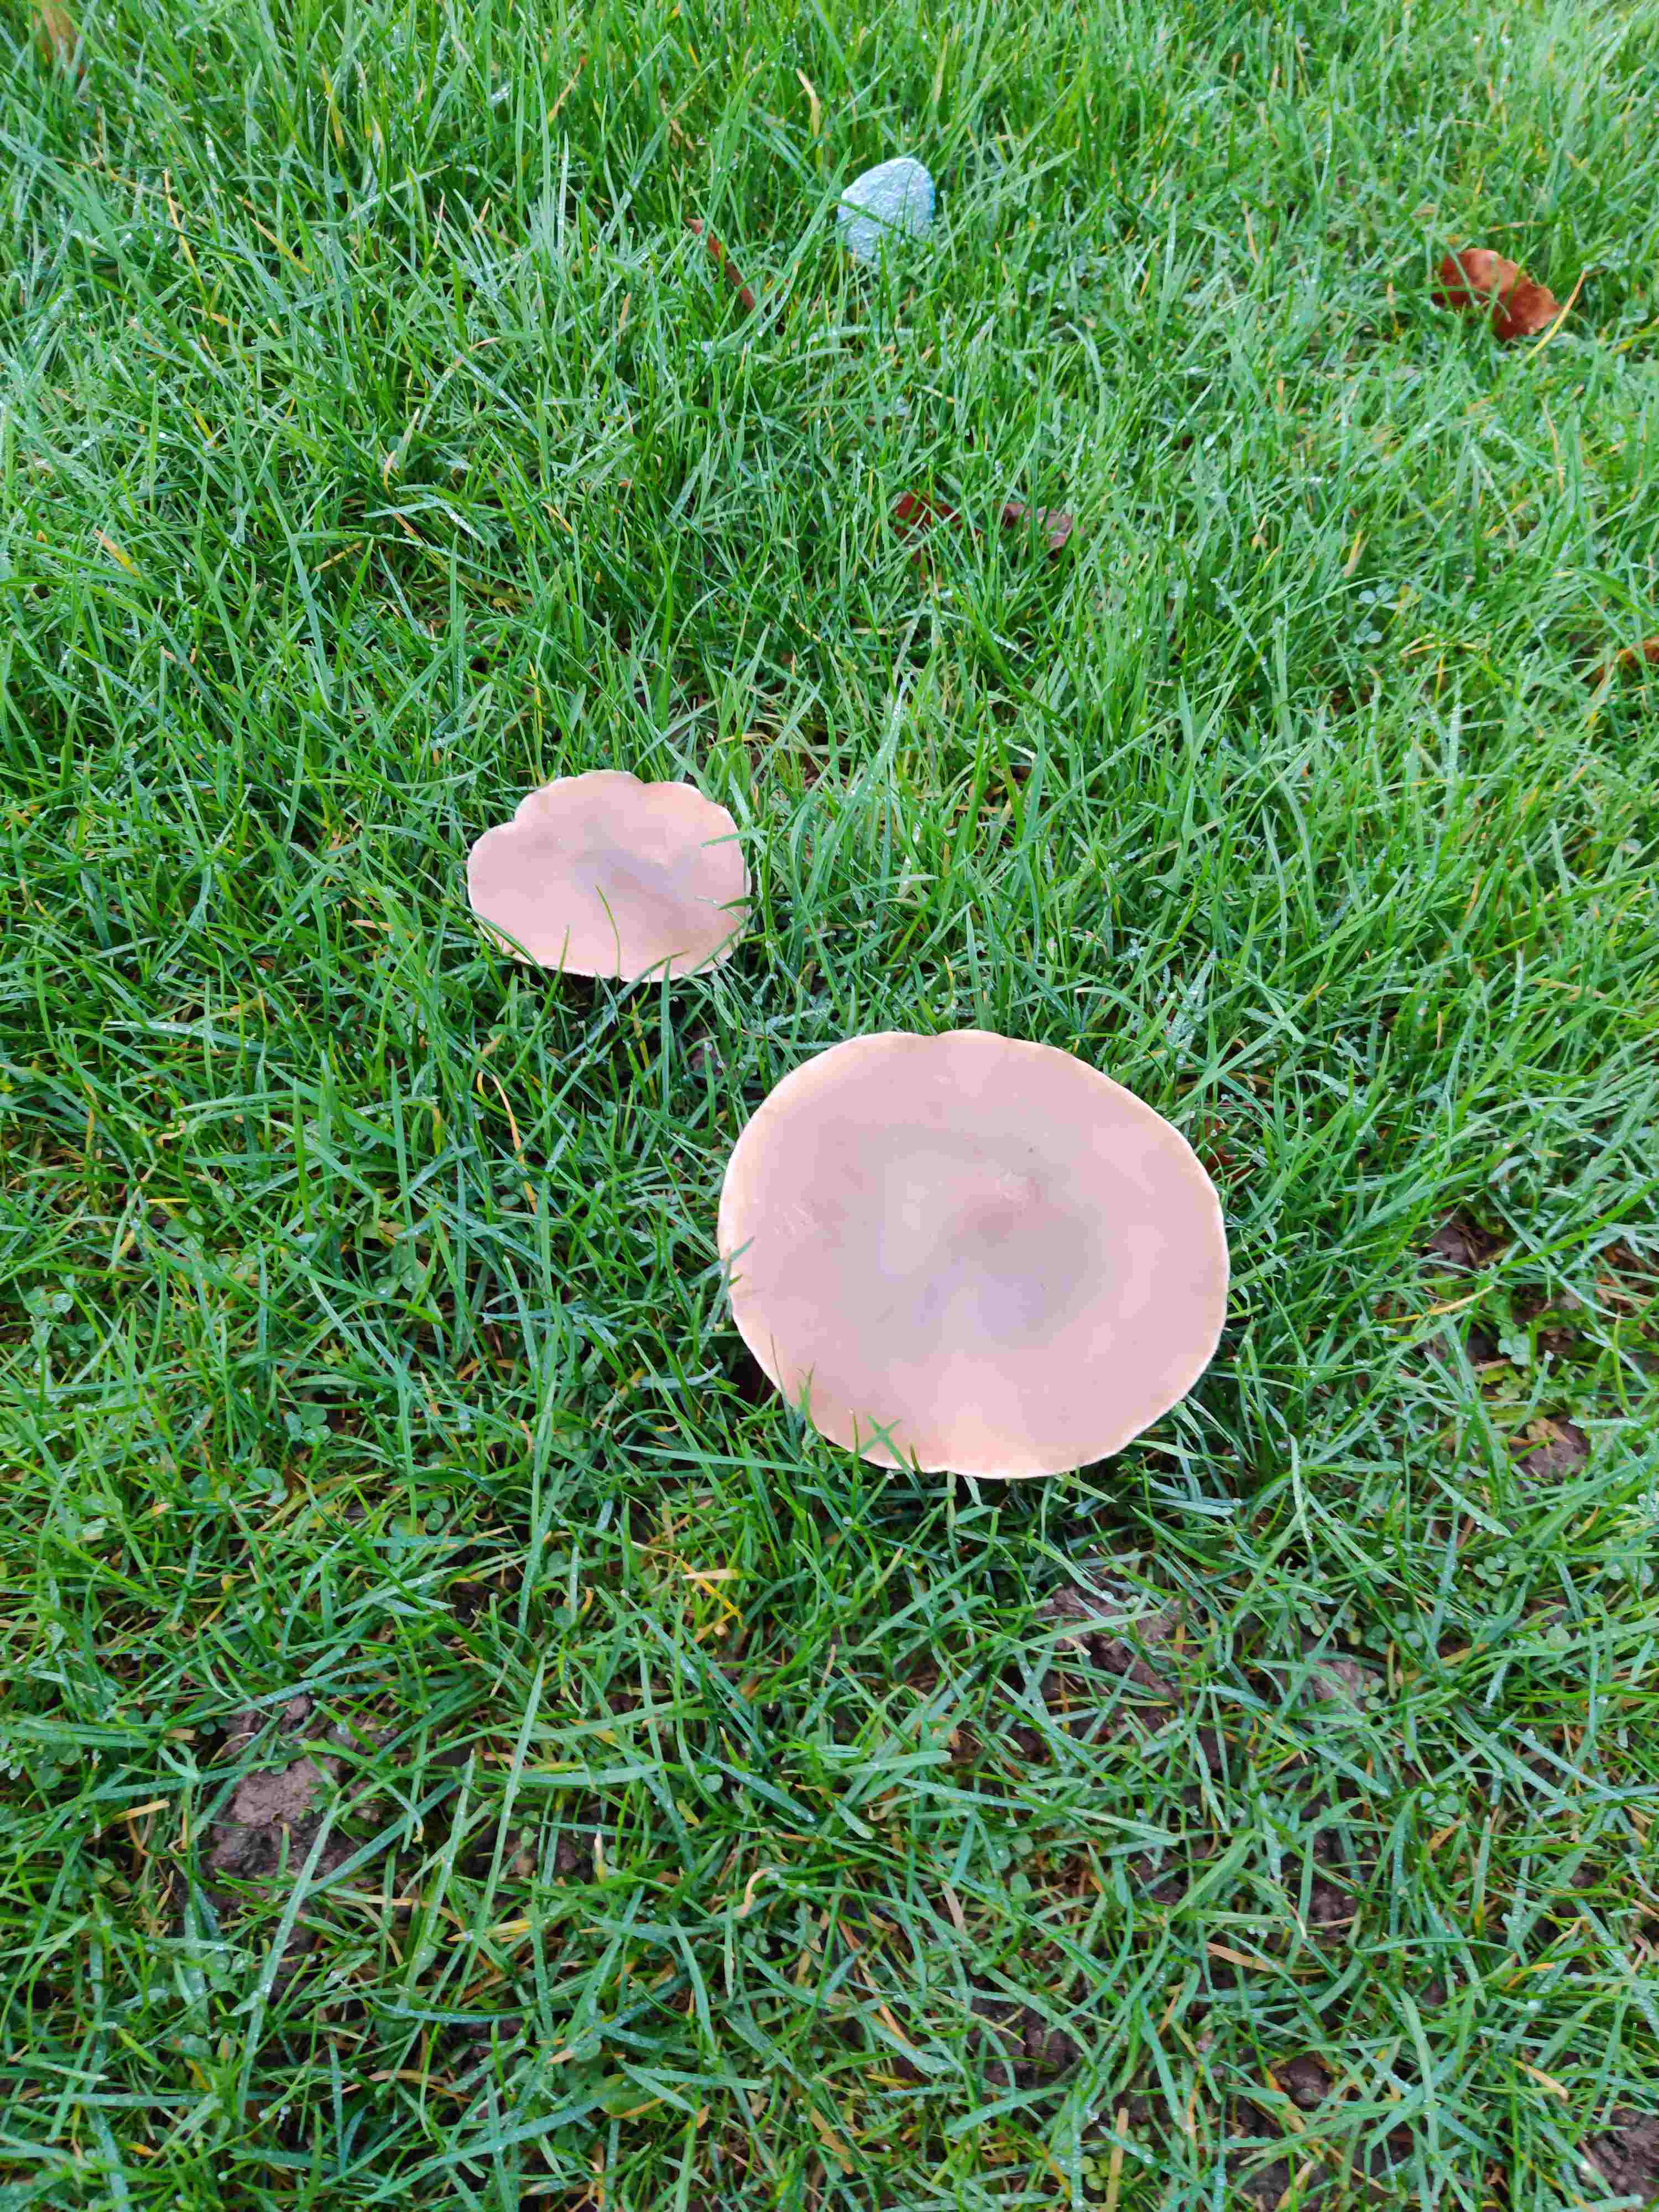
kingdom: Fungi
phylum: Basidiomycota
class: Agaricomycetes
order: Agaricales
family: Tricholomataceae
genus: Lepista
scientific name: Lepista personata
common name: bleg hekseringshat
